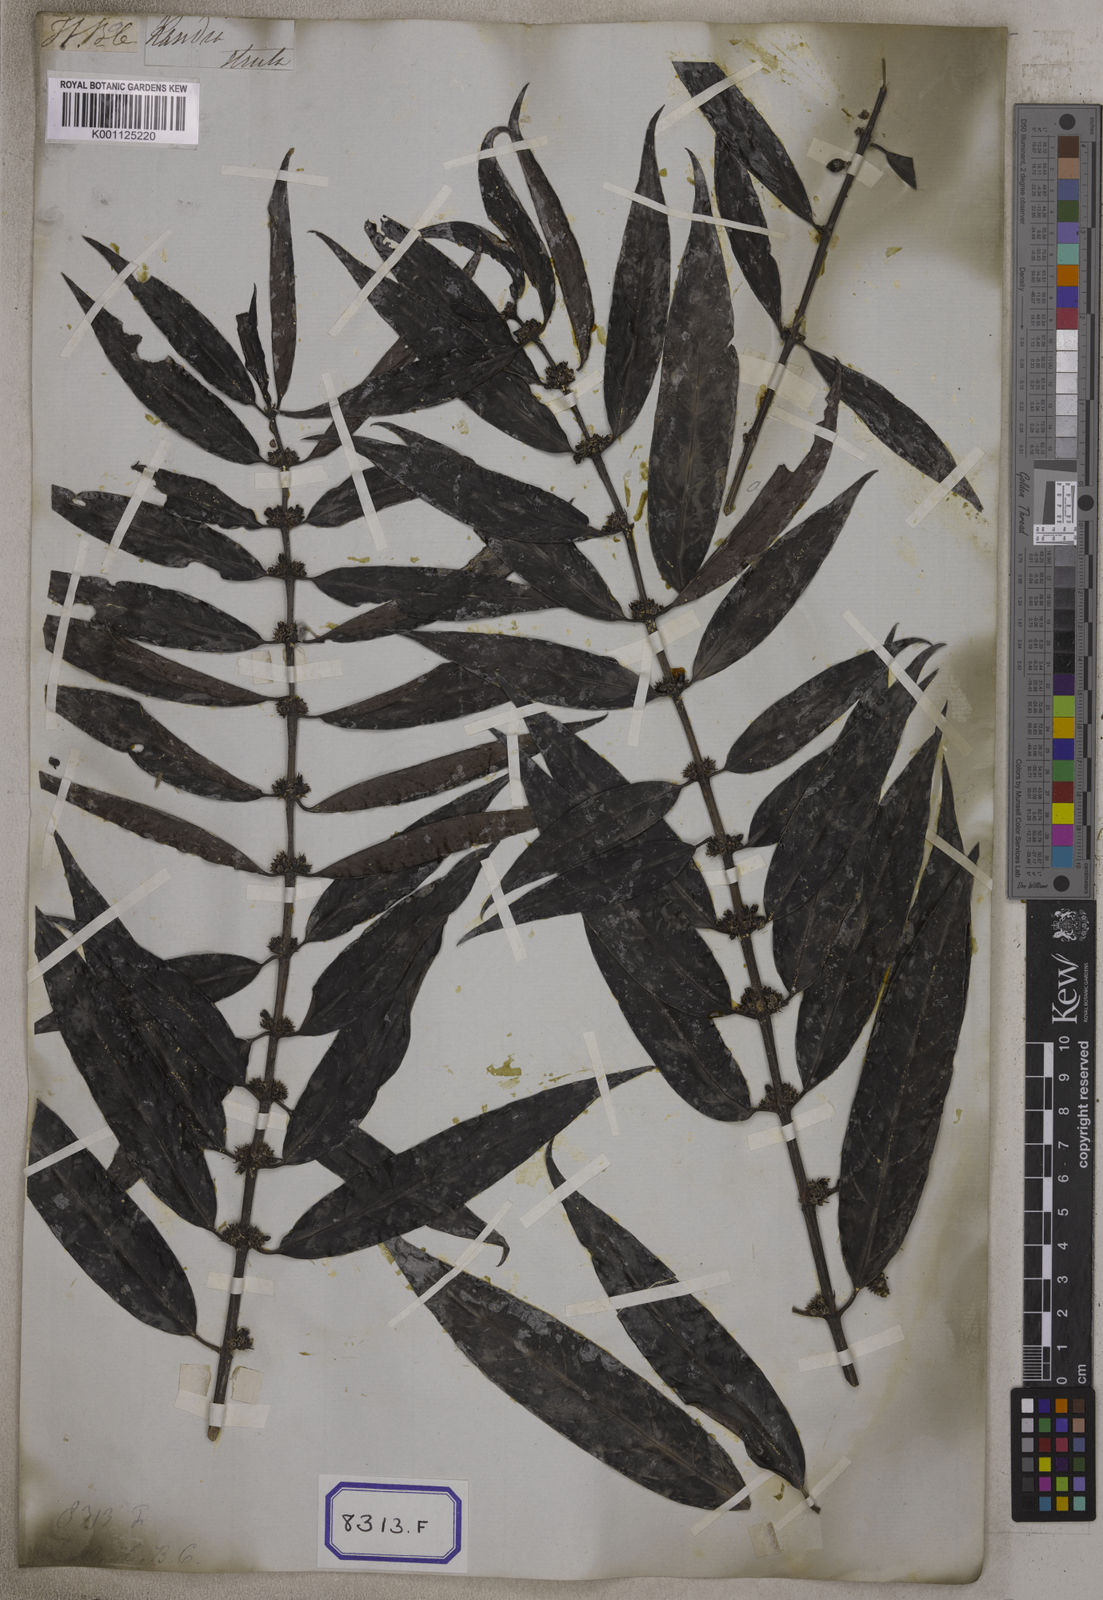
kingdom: Plantae
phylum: Tracheophyta
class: Magnoliopsida
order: Gentianales
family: Rubiaceae
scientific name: Rubiaceae
